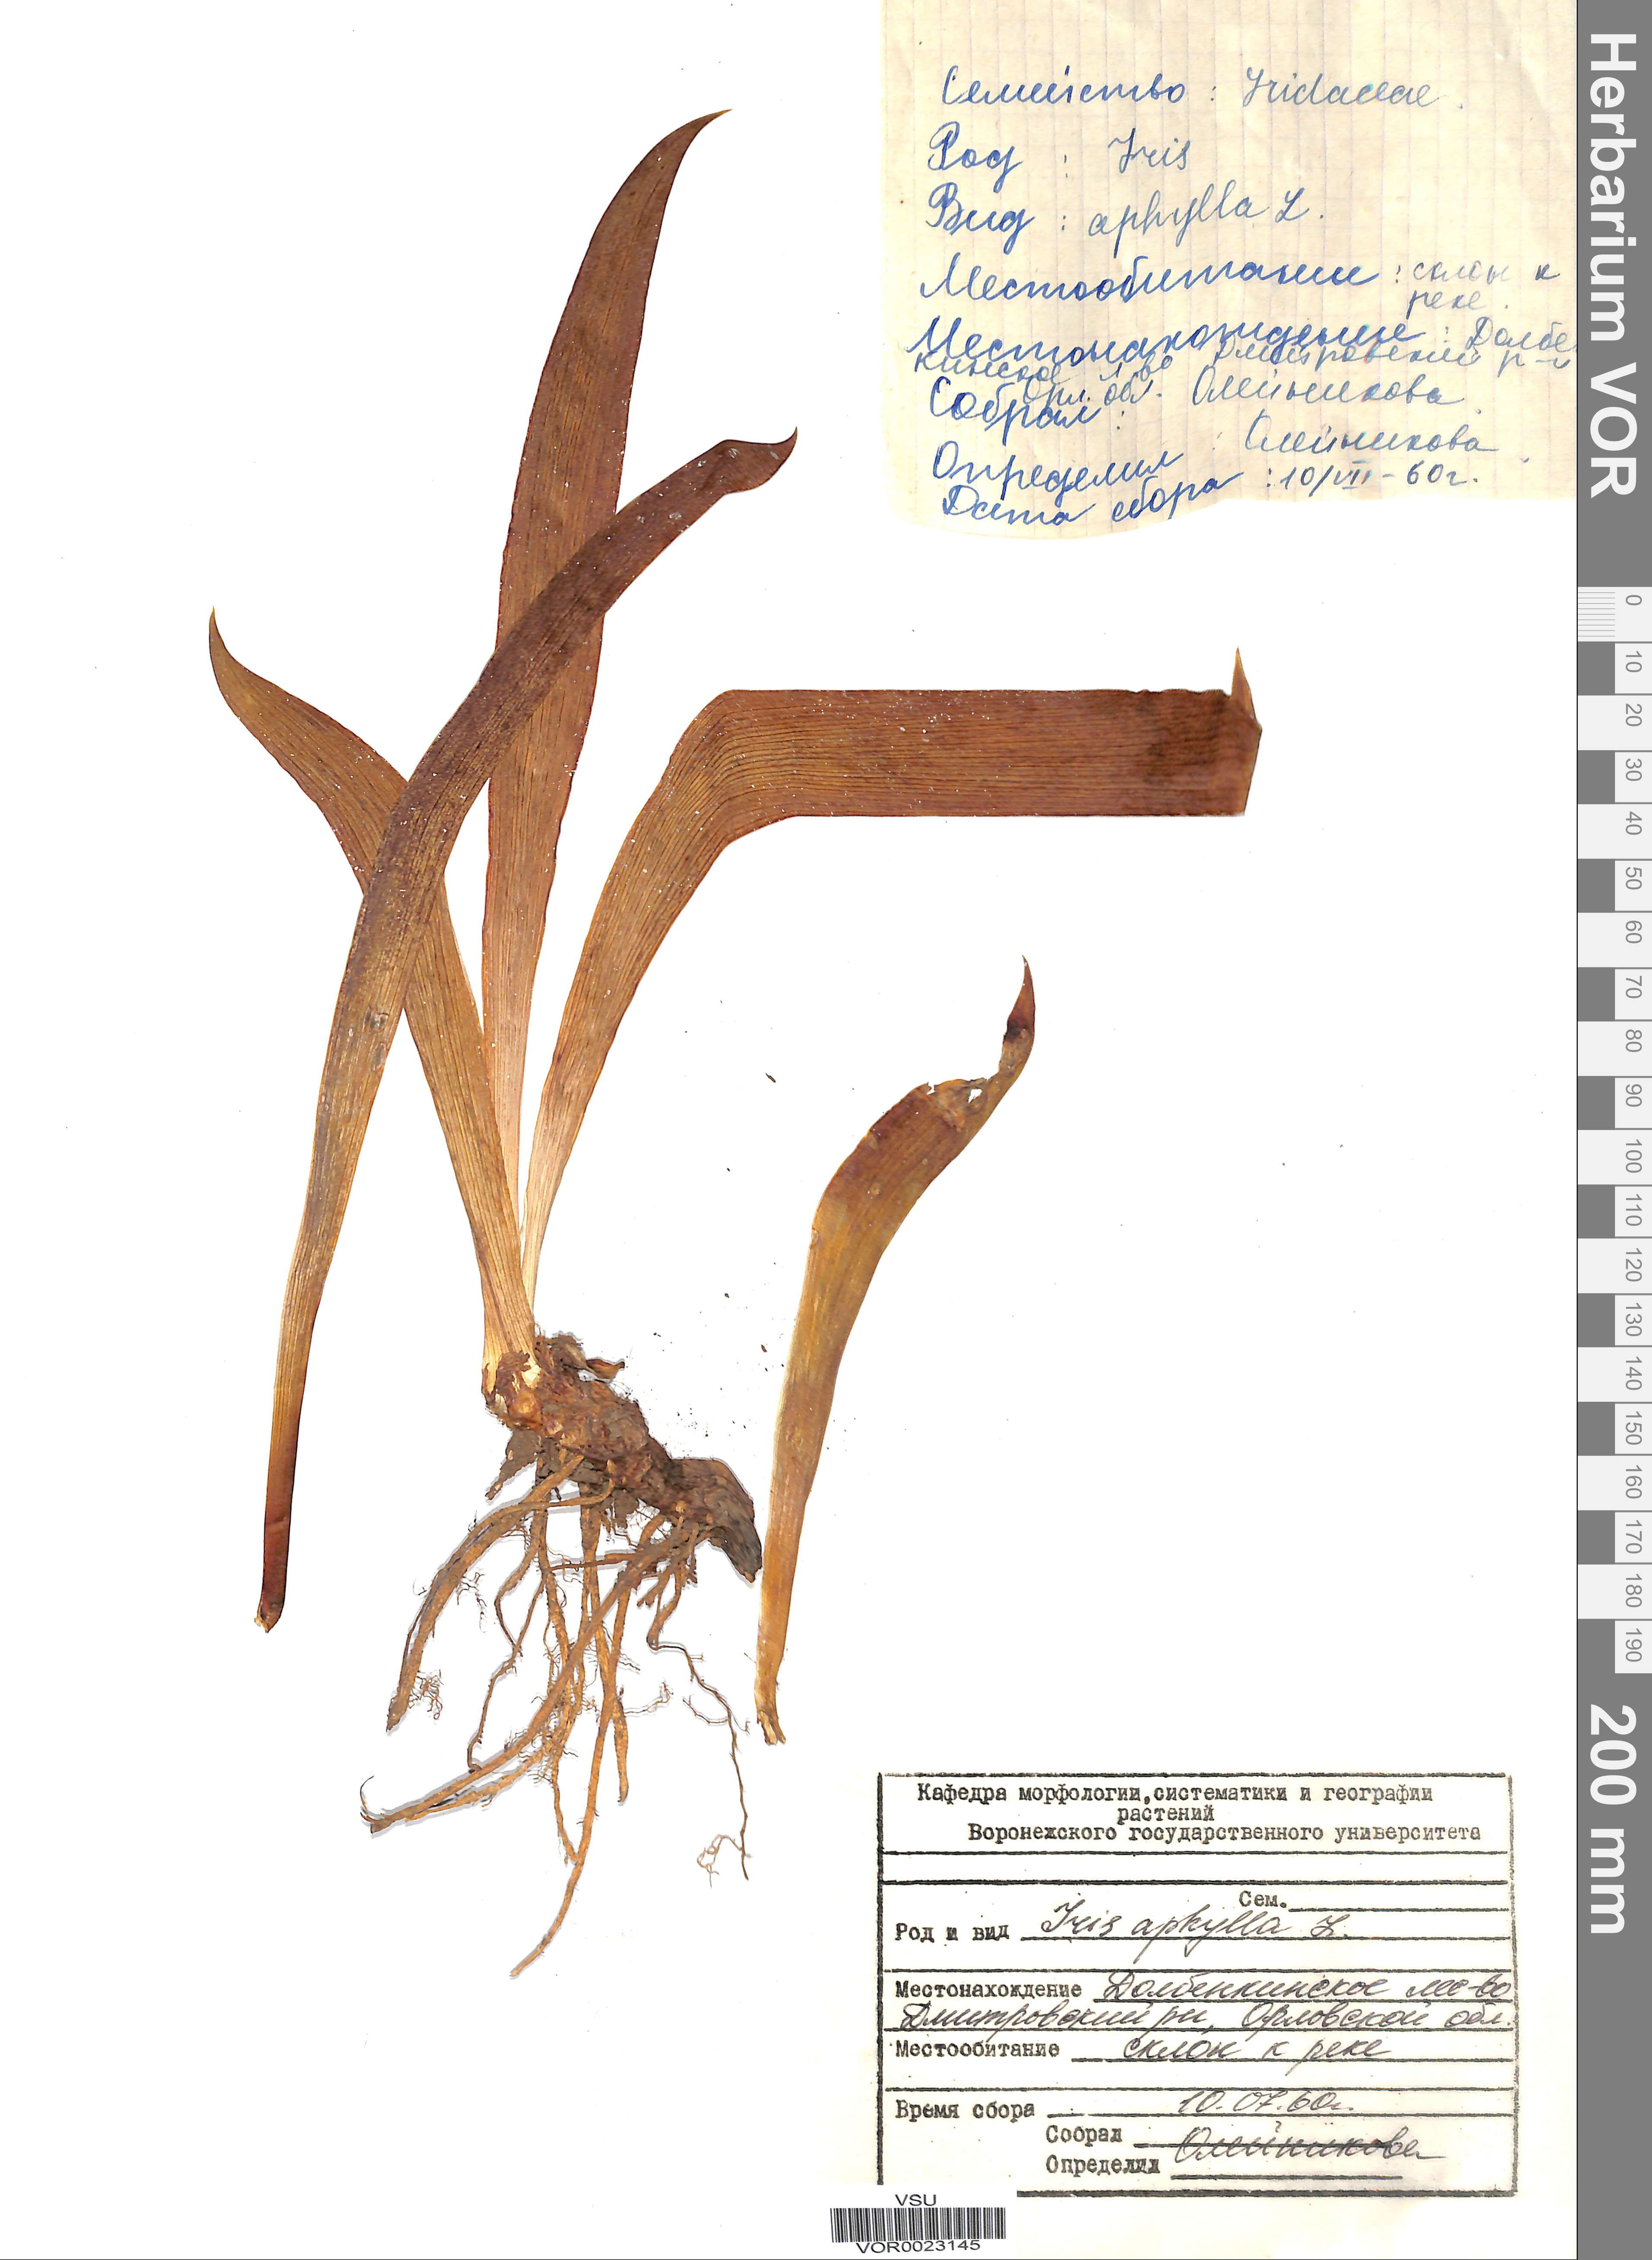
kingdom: Plantae
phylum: Tracheophyta
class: Liliopsida
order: Asparagales
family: Iridaceae
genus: Iris
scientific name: Iris aphylla
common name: Stool iris
